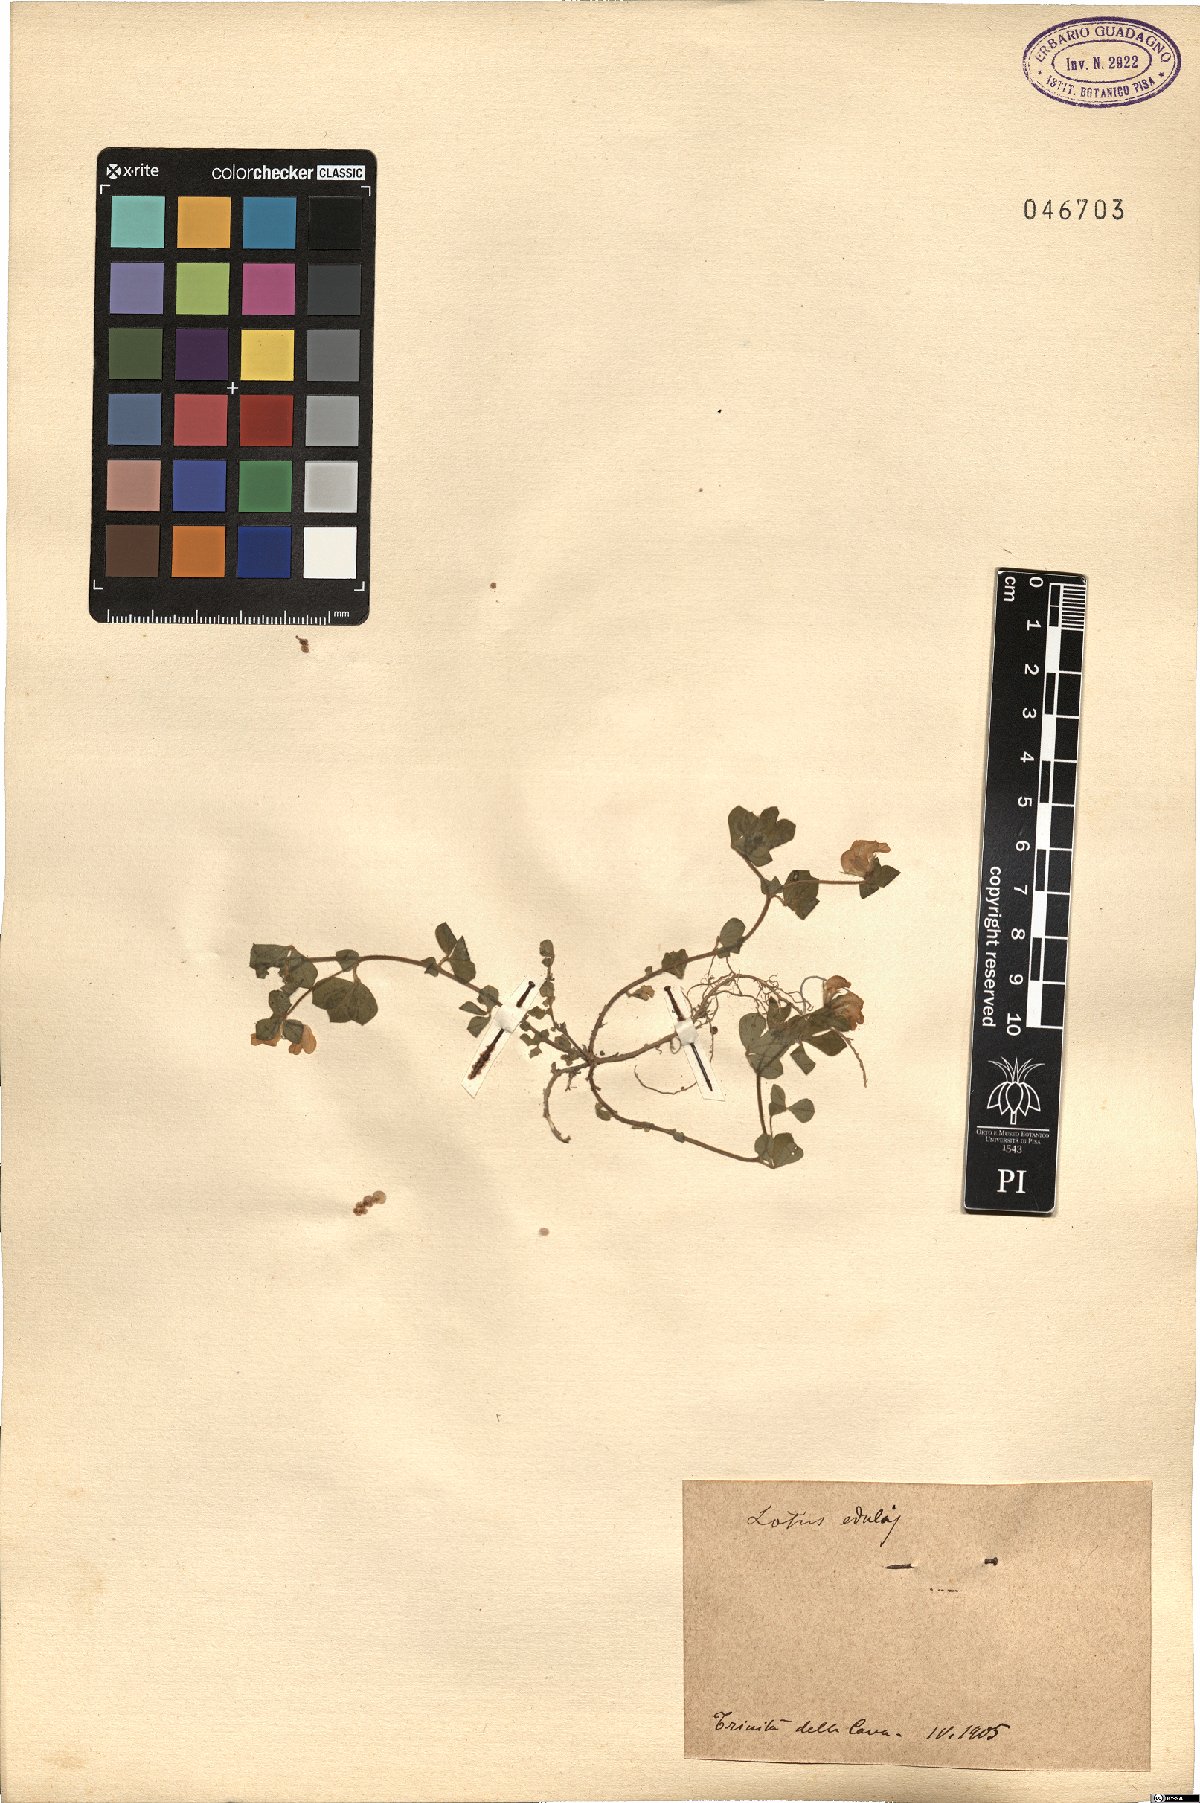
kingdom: Plantae
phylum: Tracheophyta
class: Magnoliopsida
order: Fabales
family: Fabaceae
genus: Lotus
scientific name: Lotus edulis
